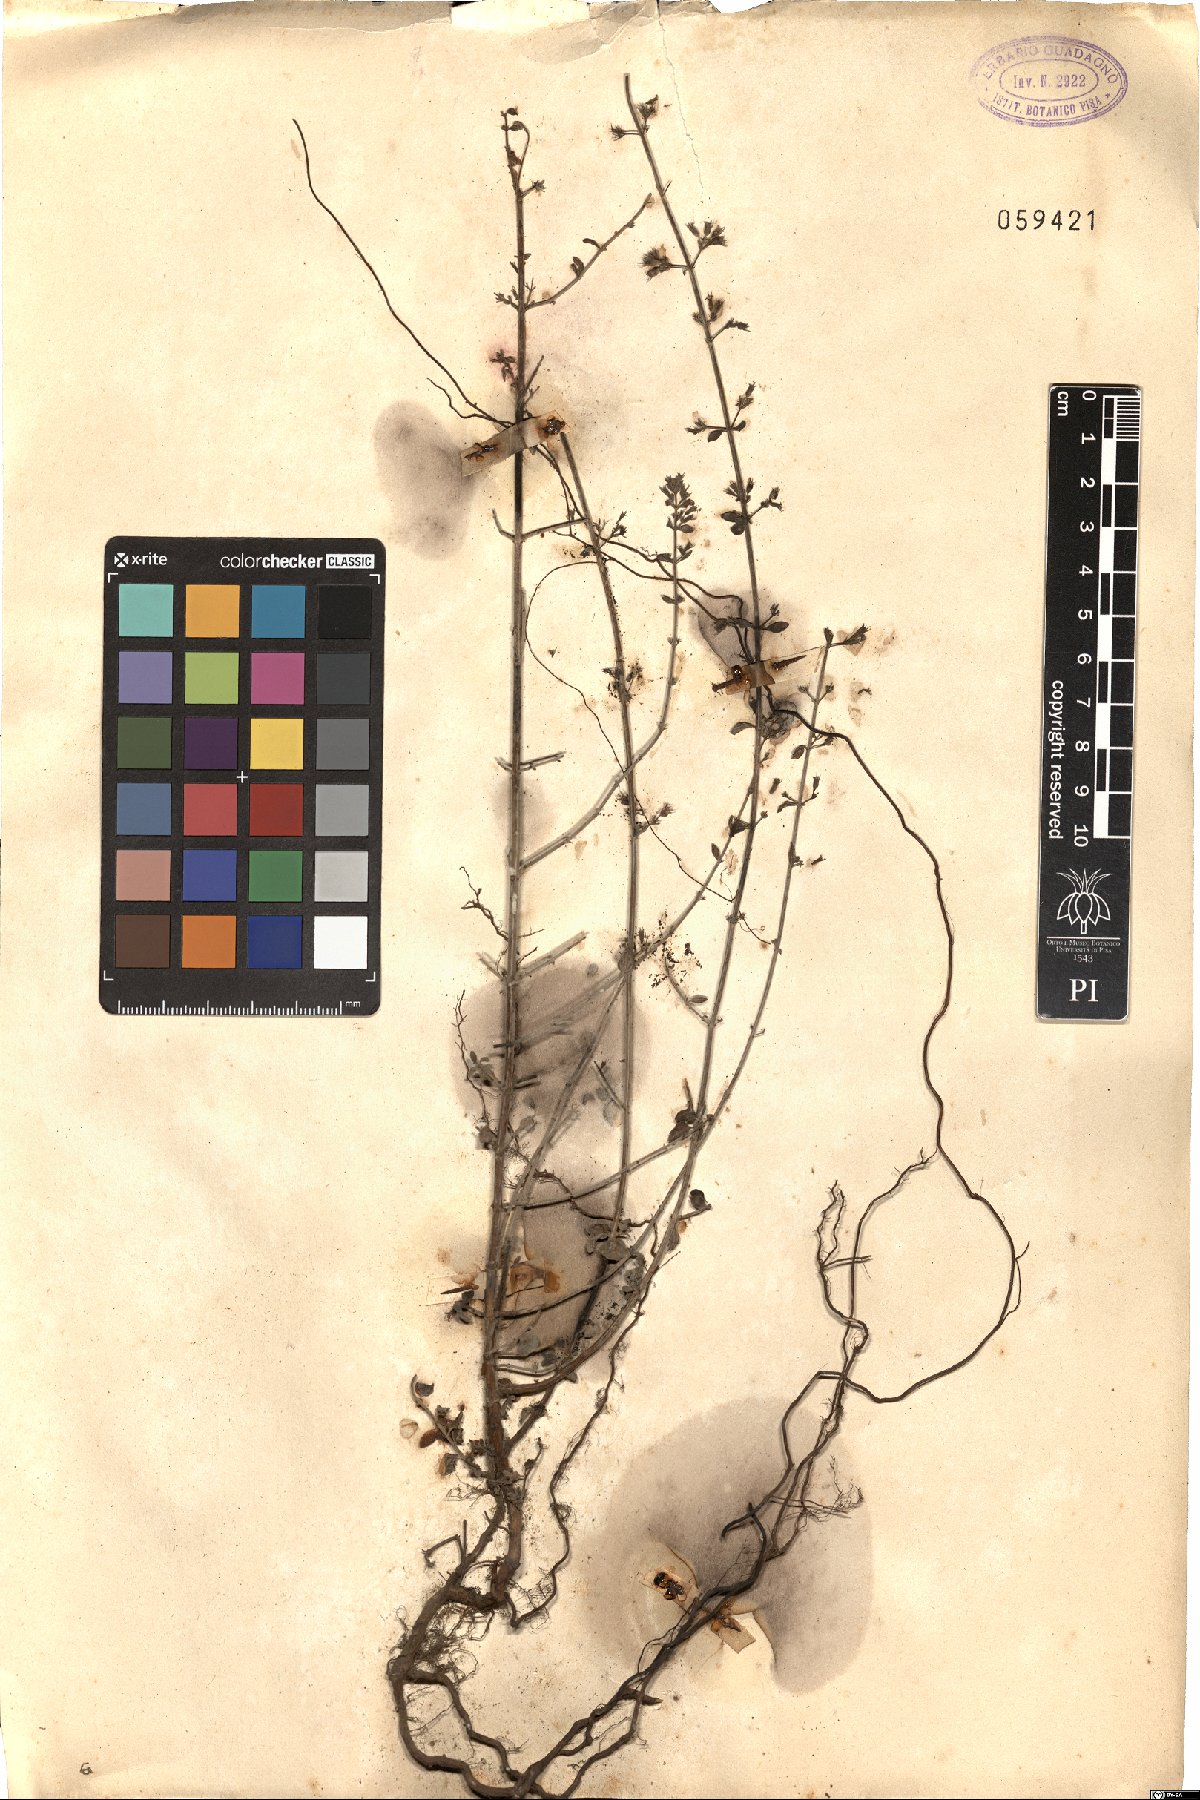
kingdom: Plantae
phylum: Tracheophyta
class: Magnoliopsida
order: Lamiales
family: Lamiaceae
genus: Clinopodium
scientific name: Clinopodium menthifolium
